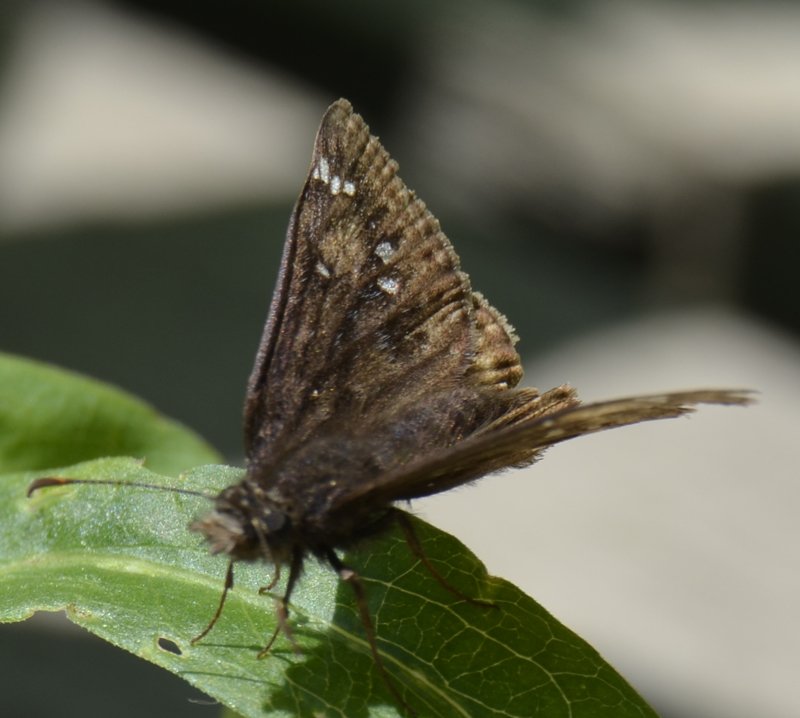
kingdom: Animalia
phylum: Arthropoda
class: Insecta
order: Lepidoptera
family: Hesperiidae
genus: Gesta
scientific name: Gesta
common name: Juvenal's Duskywing
